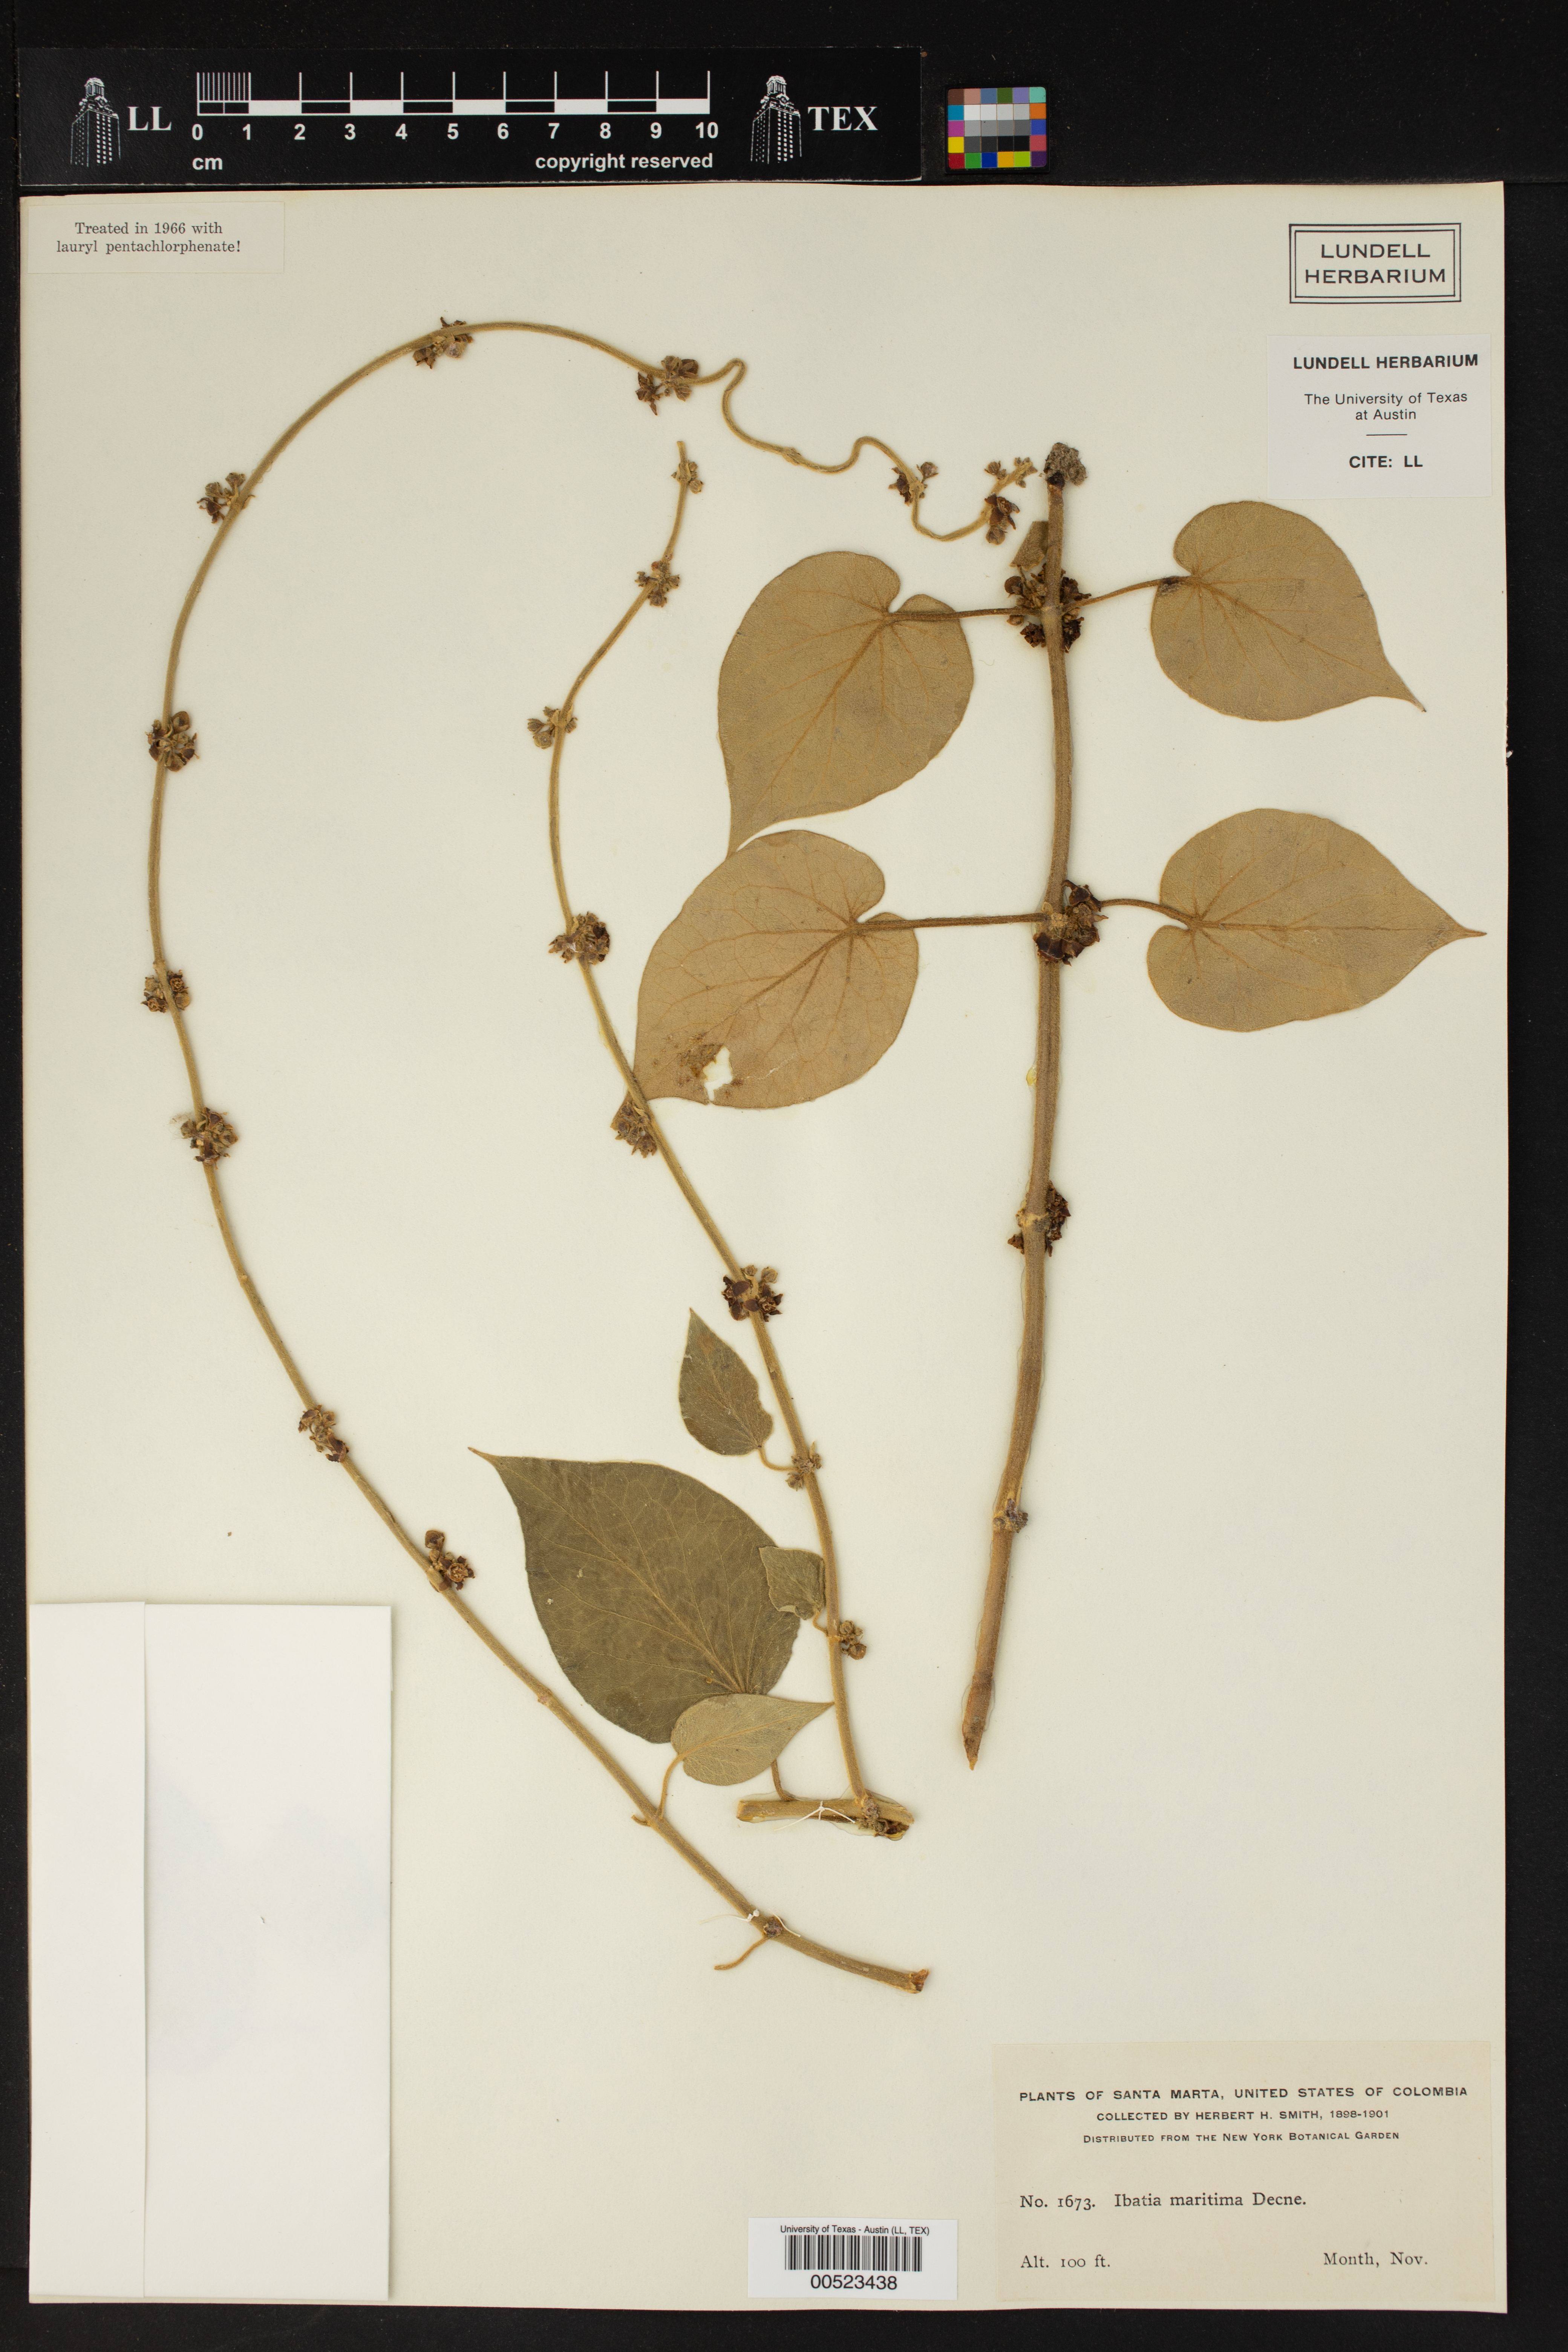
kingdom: Plantae
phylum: Tracheophyta
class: Magnoliopsida
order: Gentianales
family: Apocynaceae
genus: Ibatia
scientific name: Ibatia maritima
